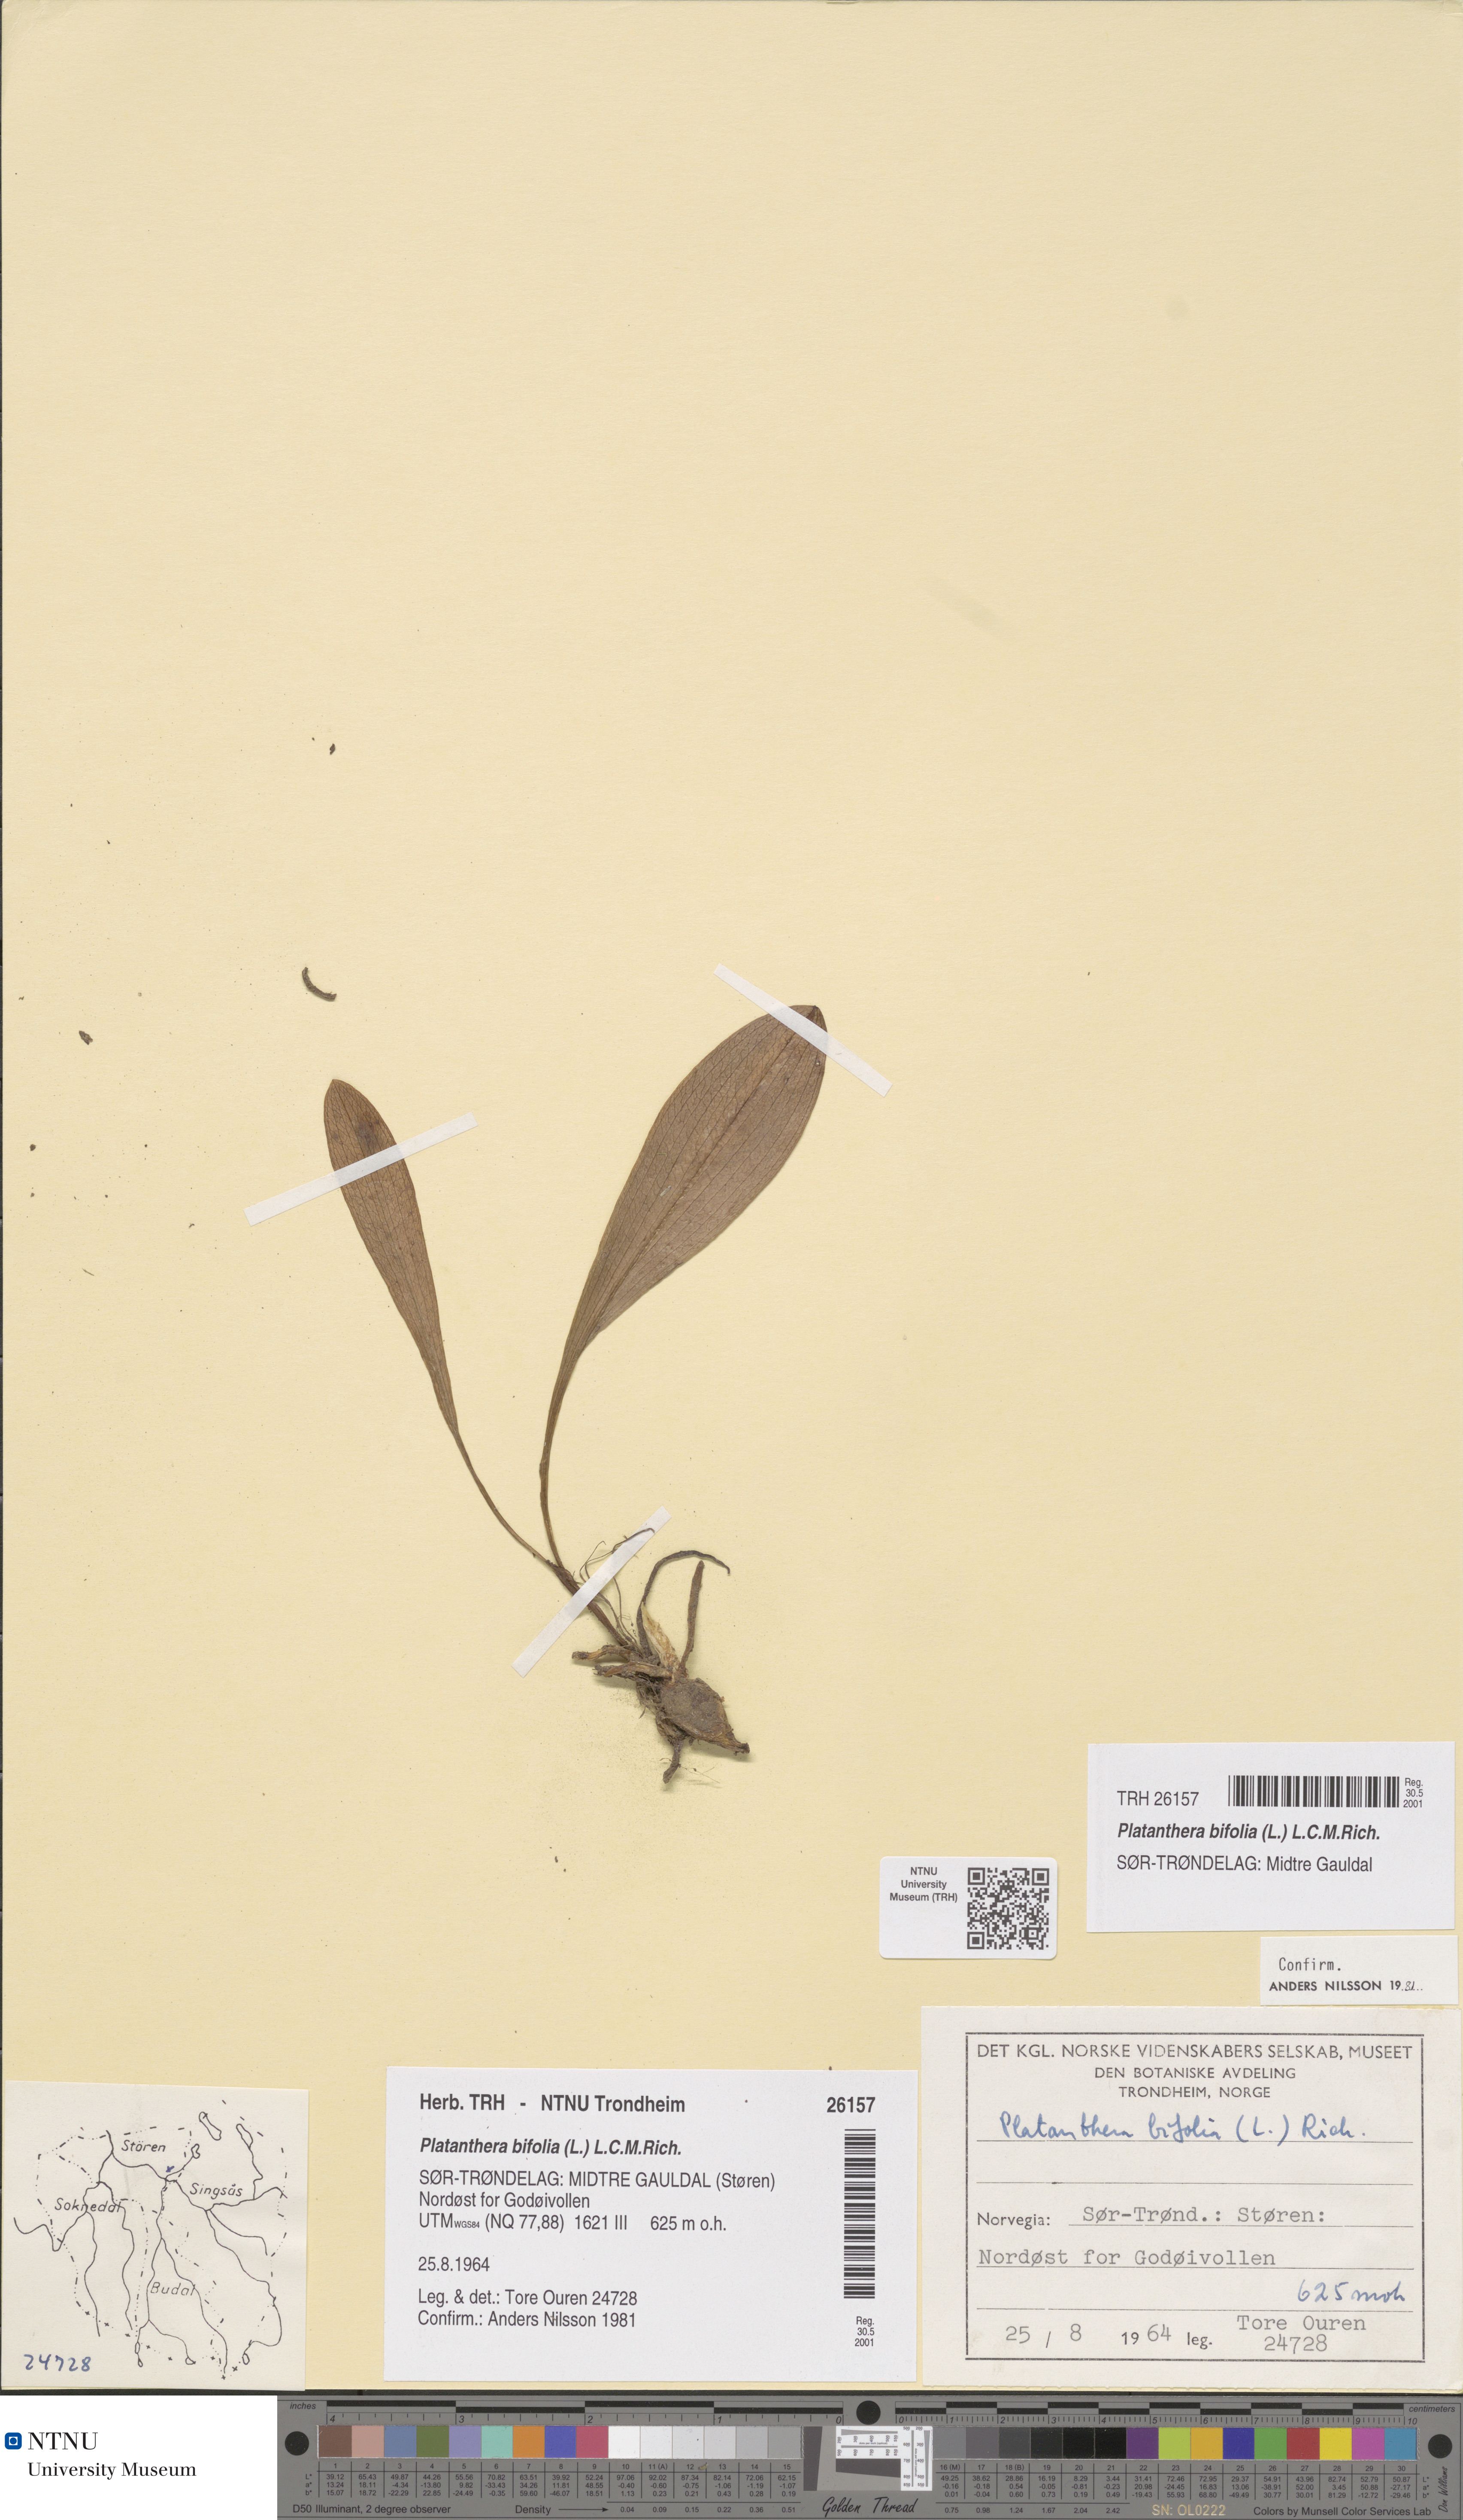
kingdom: Plantae
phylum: Tracheophyta
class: Liliopsida
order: Asparagales
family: Orchidaceae
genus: Platanthera
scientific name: Platanthera bifolia
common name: Lesser butterfly-orchid
